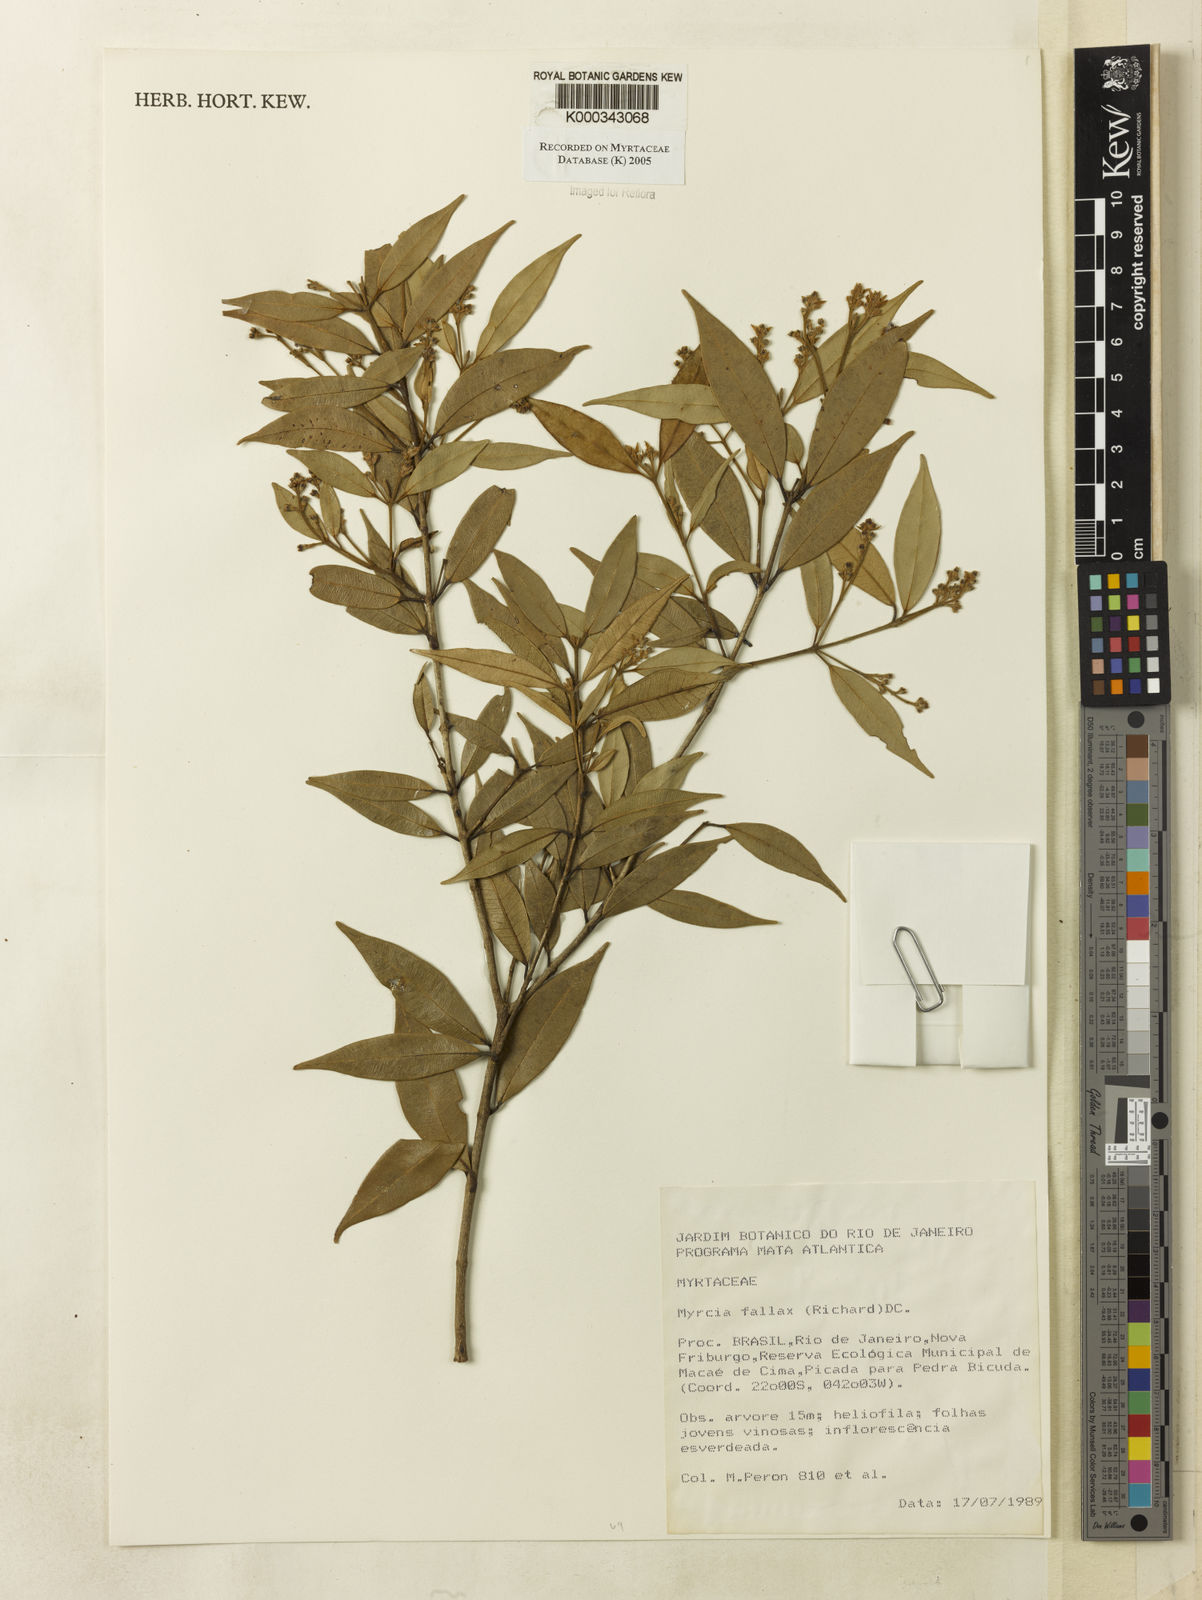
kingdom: Plantae
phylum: Tracheophyta
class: Magnoliopsida
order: Myrtales
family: Myrtaceae
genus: Myrcia
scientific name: Myrcia splendens
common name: Surinam cherry
